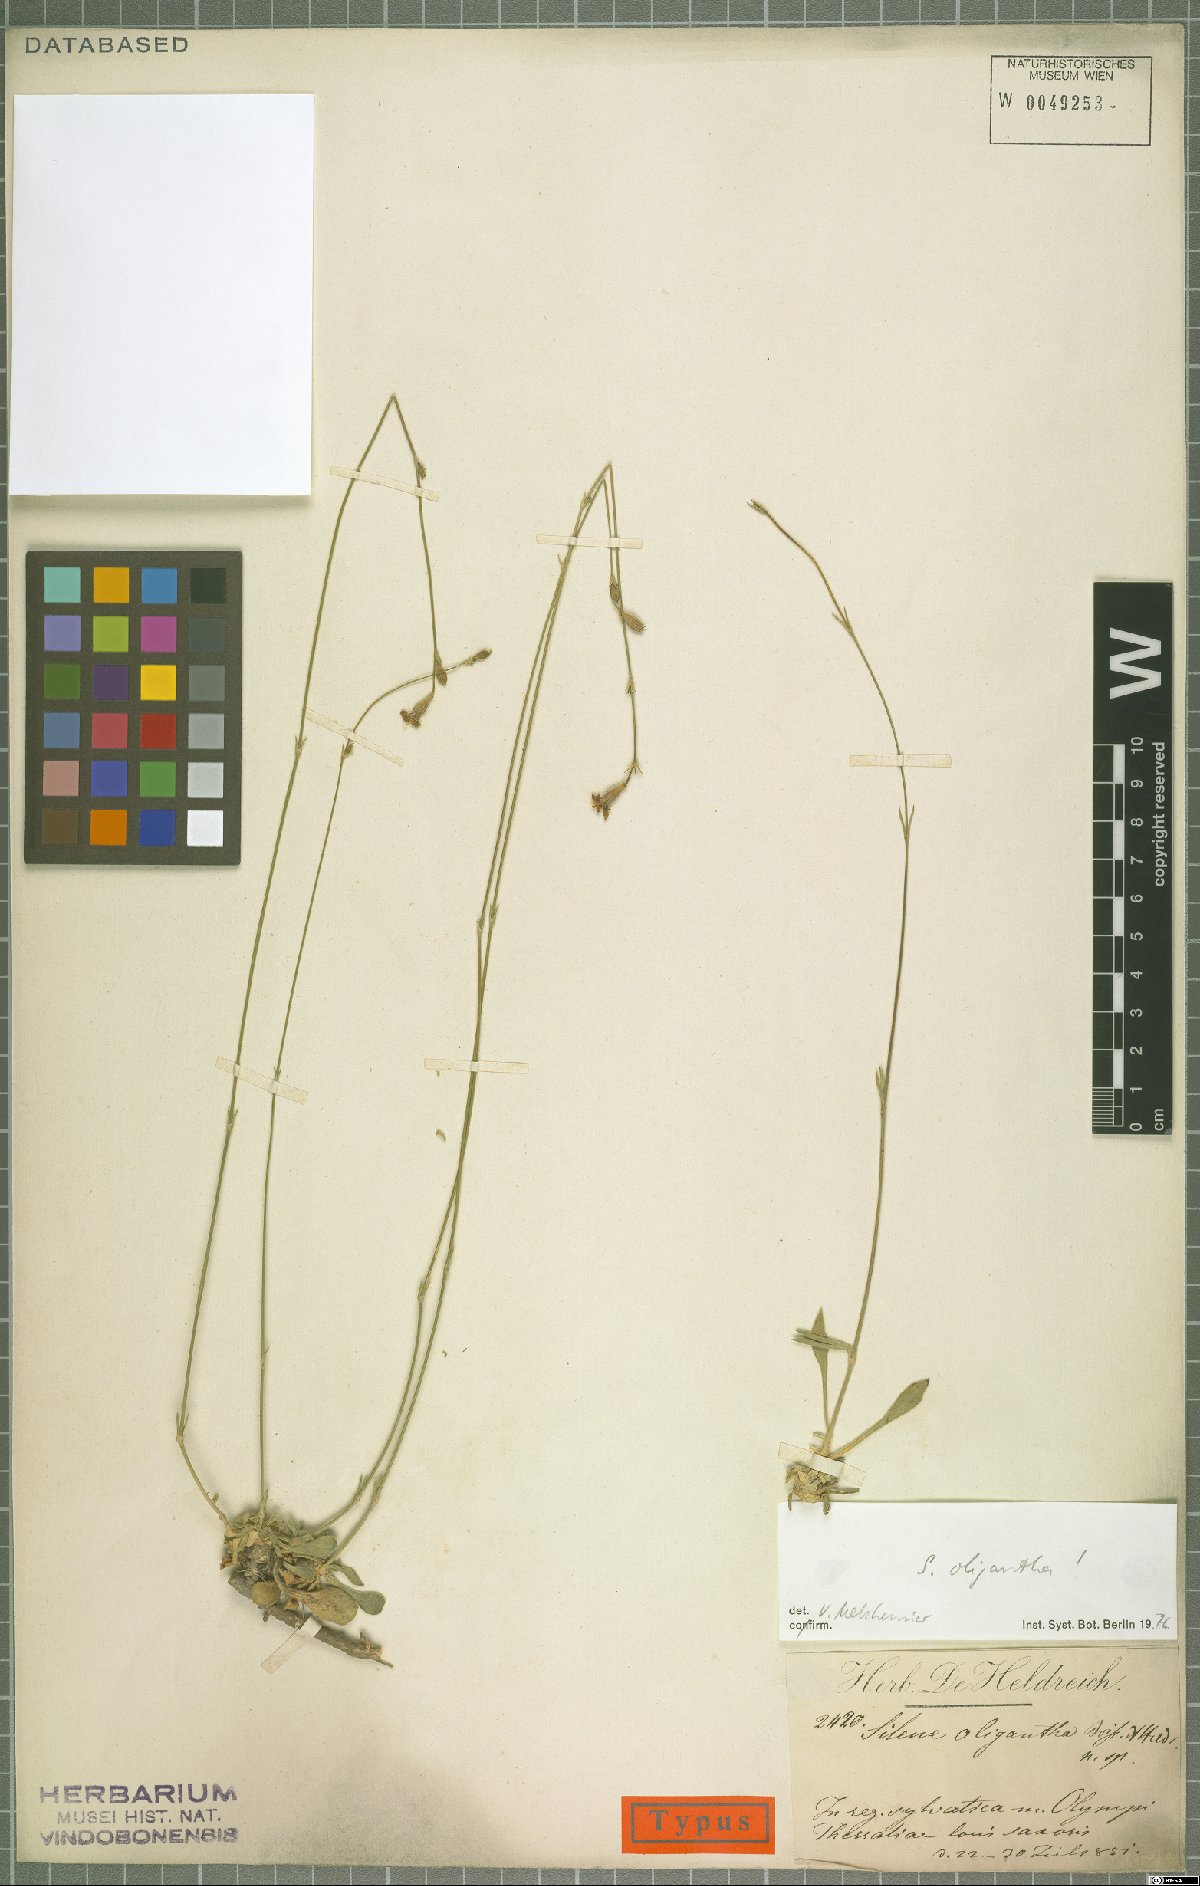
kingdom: Plantae
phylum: Tracheophyta
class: Magnoliopsida
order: Caryophyllales
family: Caryophyllaceae
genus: Silene
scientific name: Silene oligantha
